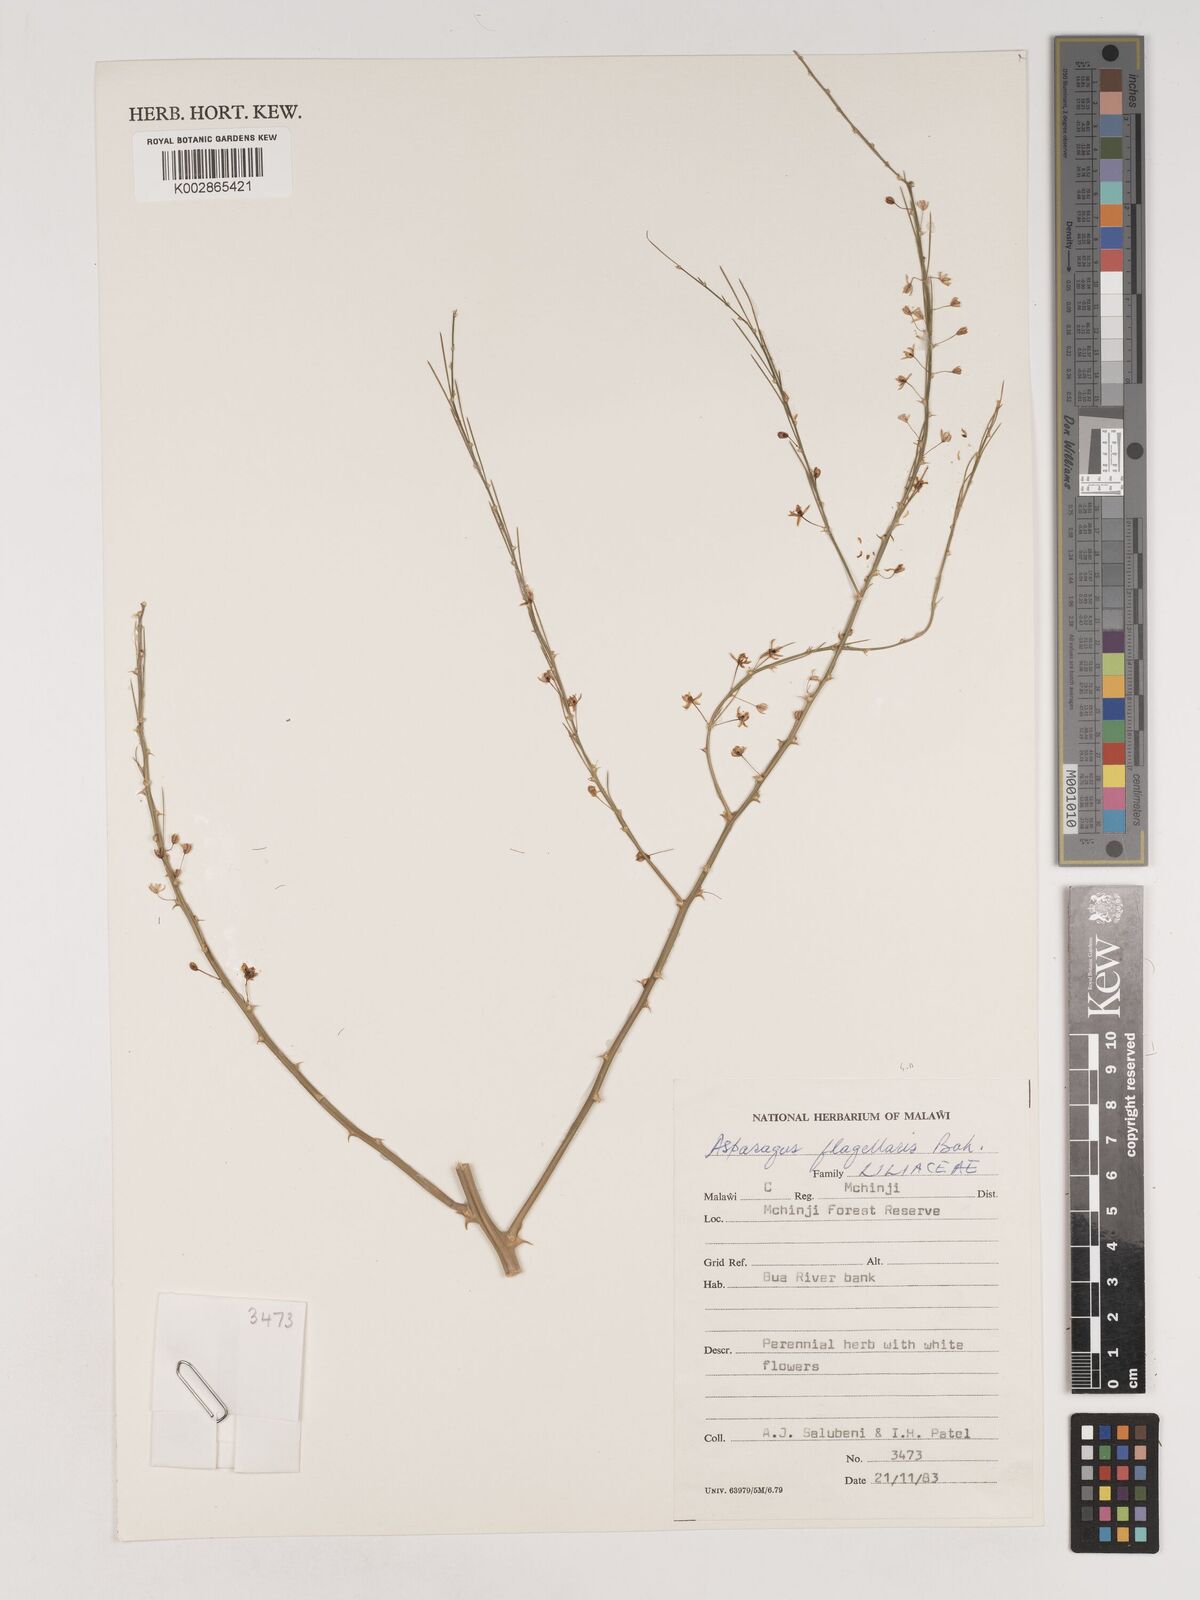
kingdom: Plantae
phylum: Tracheophyta
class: Liliopsida
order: Asparagales
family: Asparagaceae
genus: Asparagus
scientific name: Asparagus flagellaris
